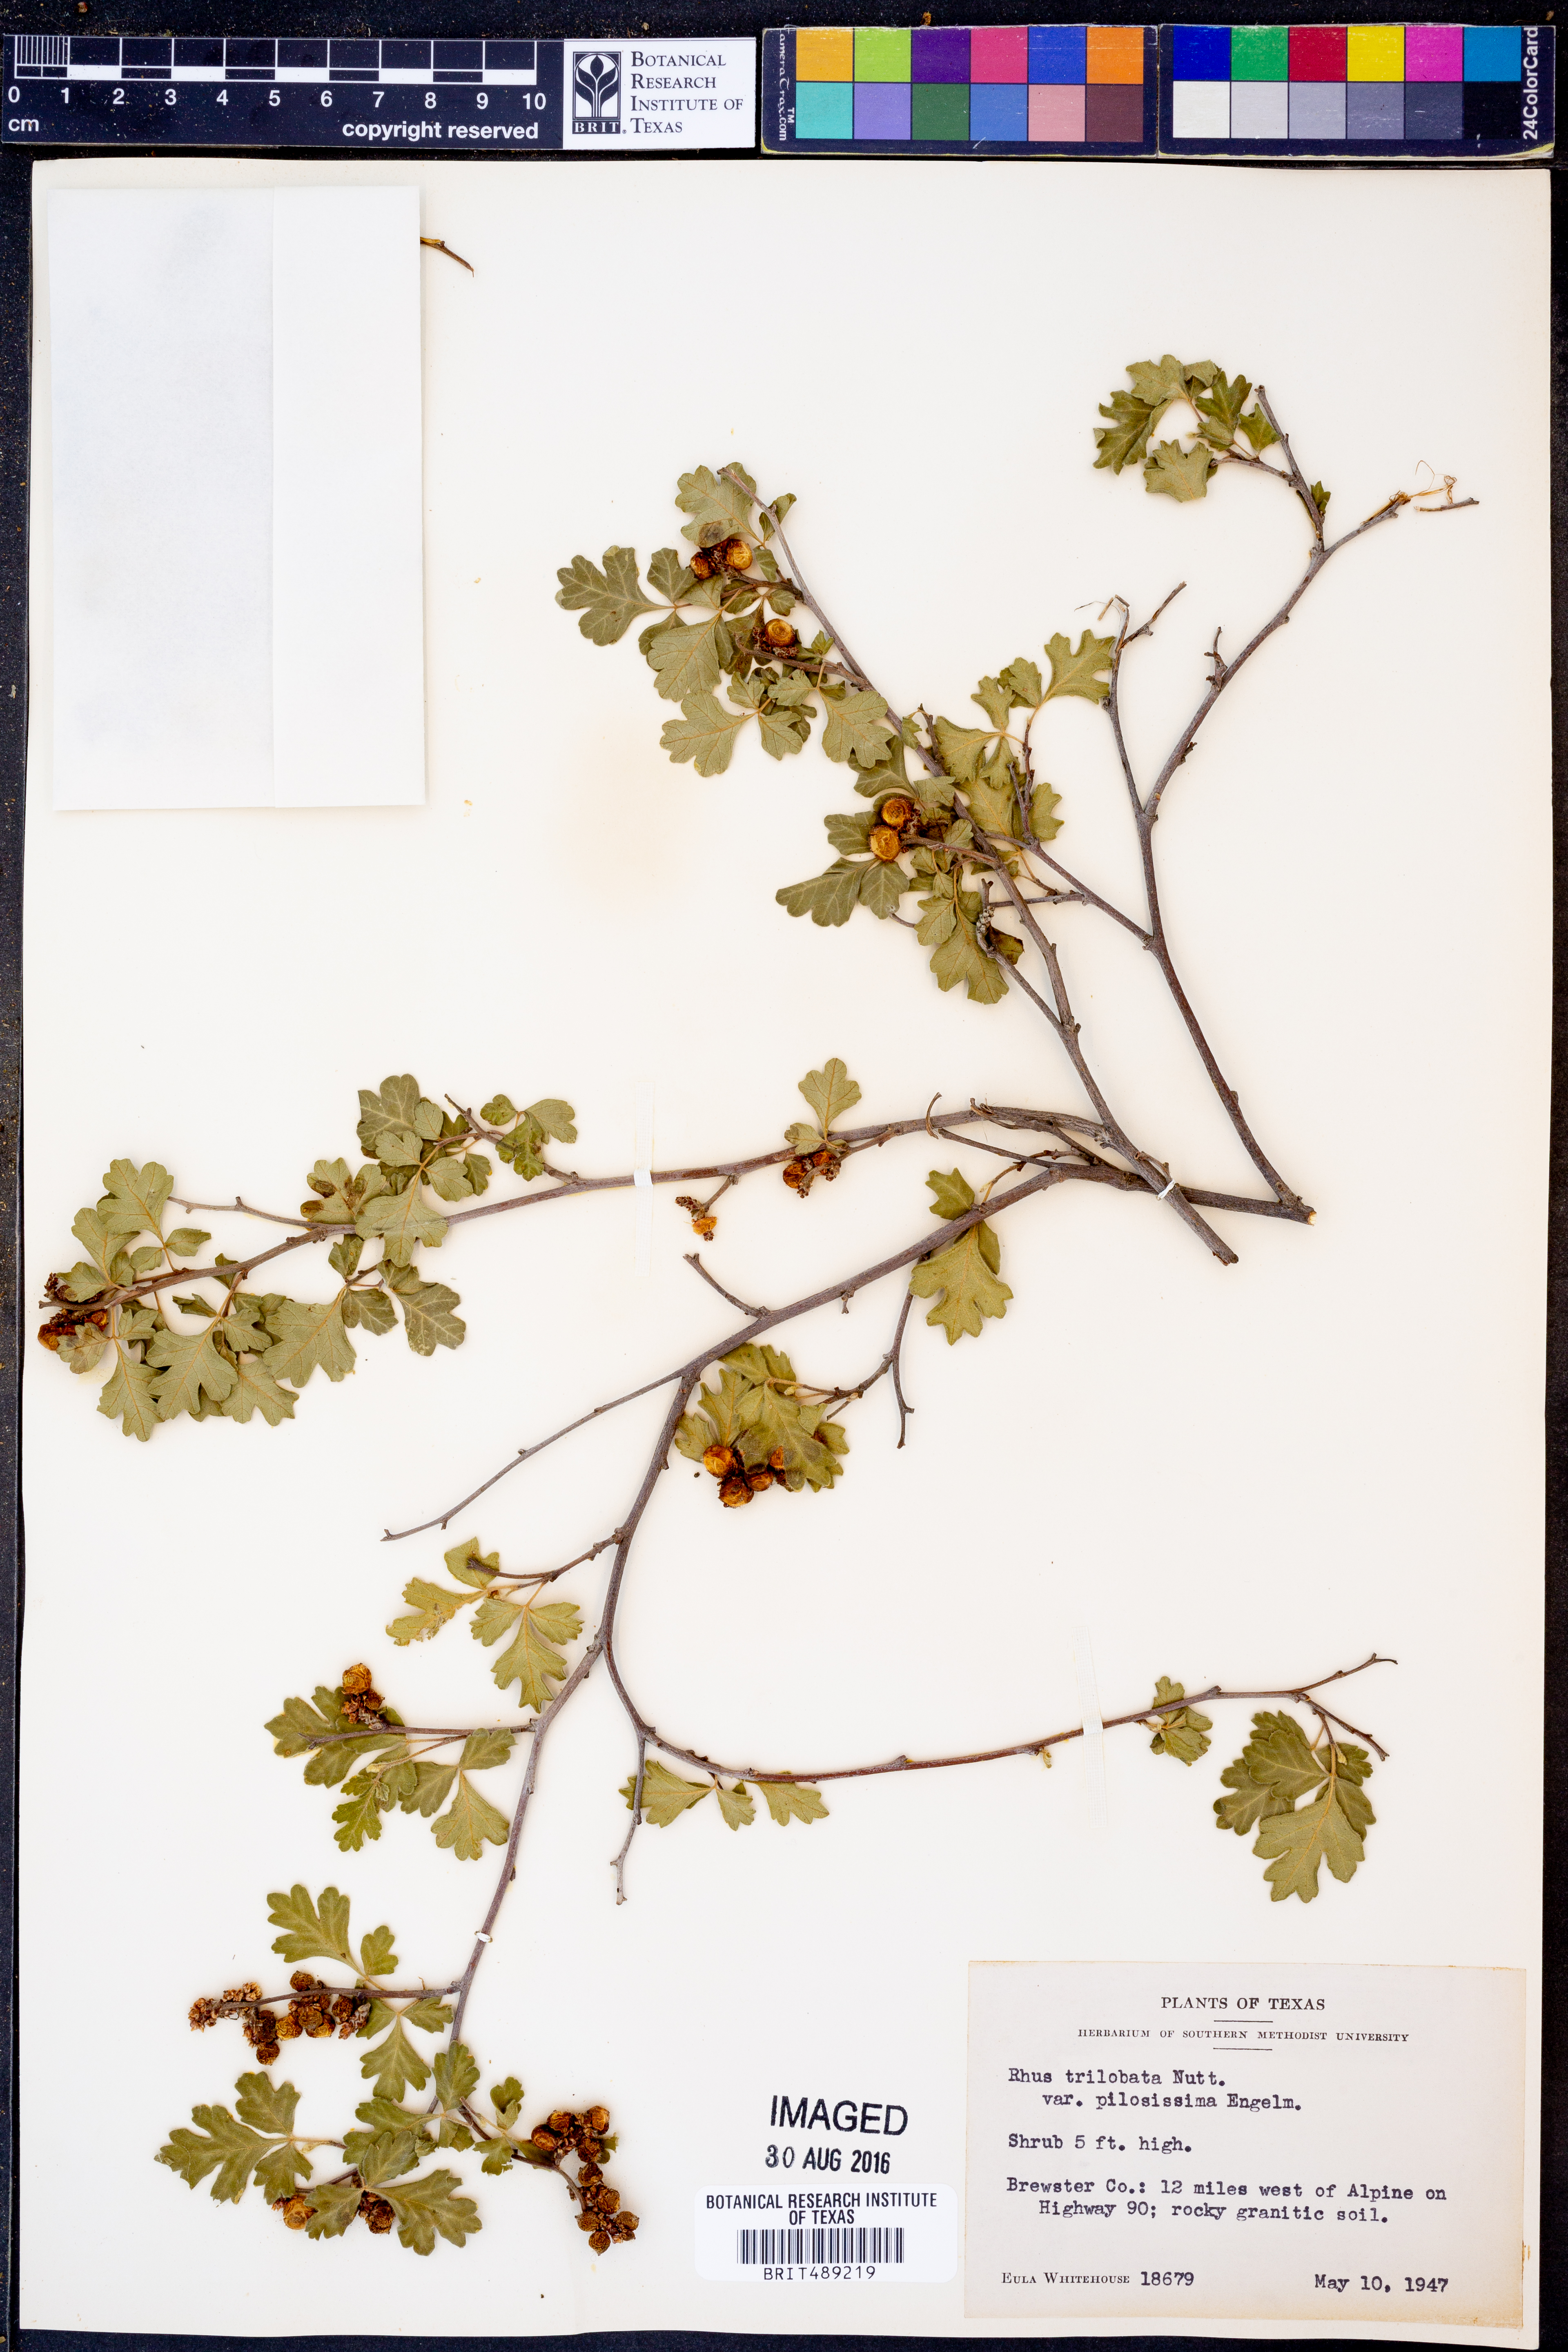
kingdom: Plantae
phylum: Tracheophyta
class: Magnoliopsida
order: Sapindales
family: Anacardiaceae
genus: Rhus
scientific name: Rhus trilobata
